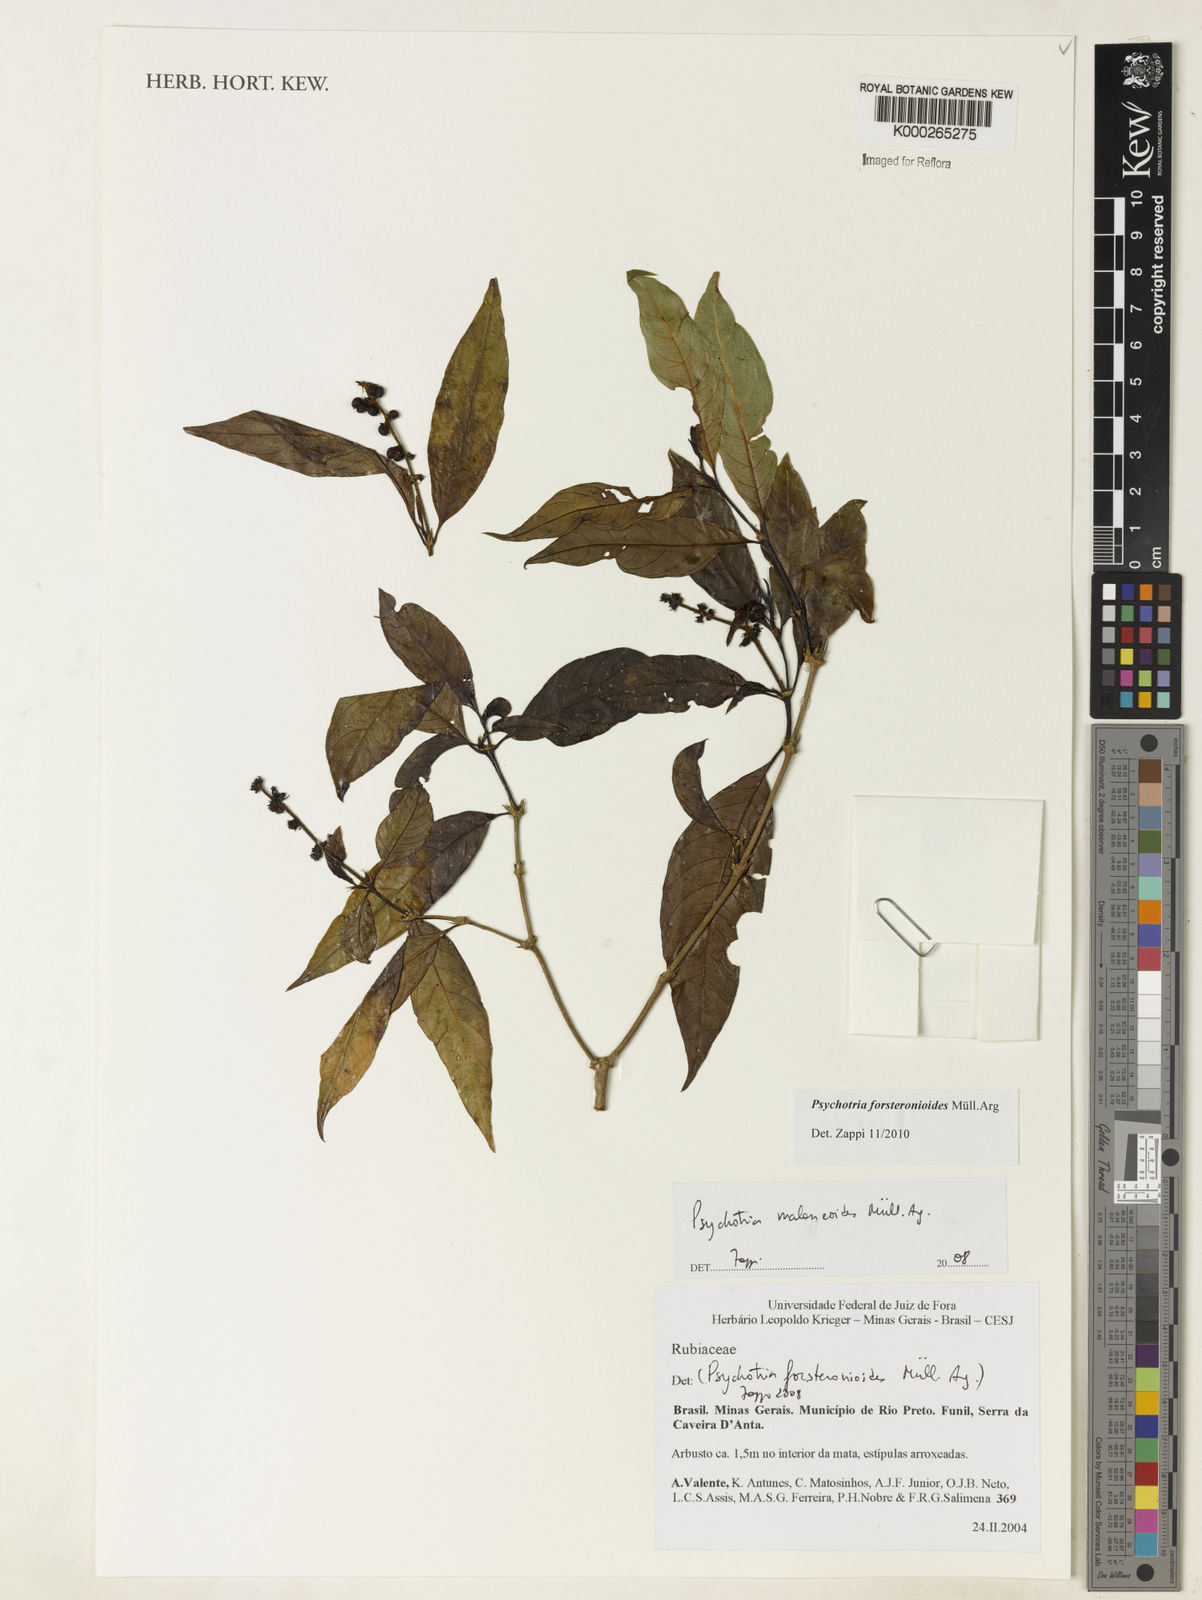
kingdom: Plantae
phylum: Tracheophyta
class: Magnoliopsida
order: Gentianales
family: Rubiaceae
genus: Psychotria
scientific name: Psychotria
